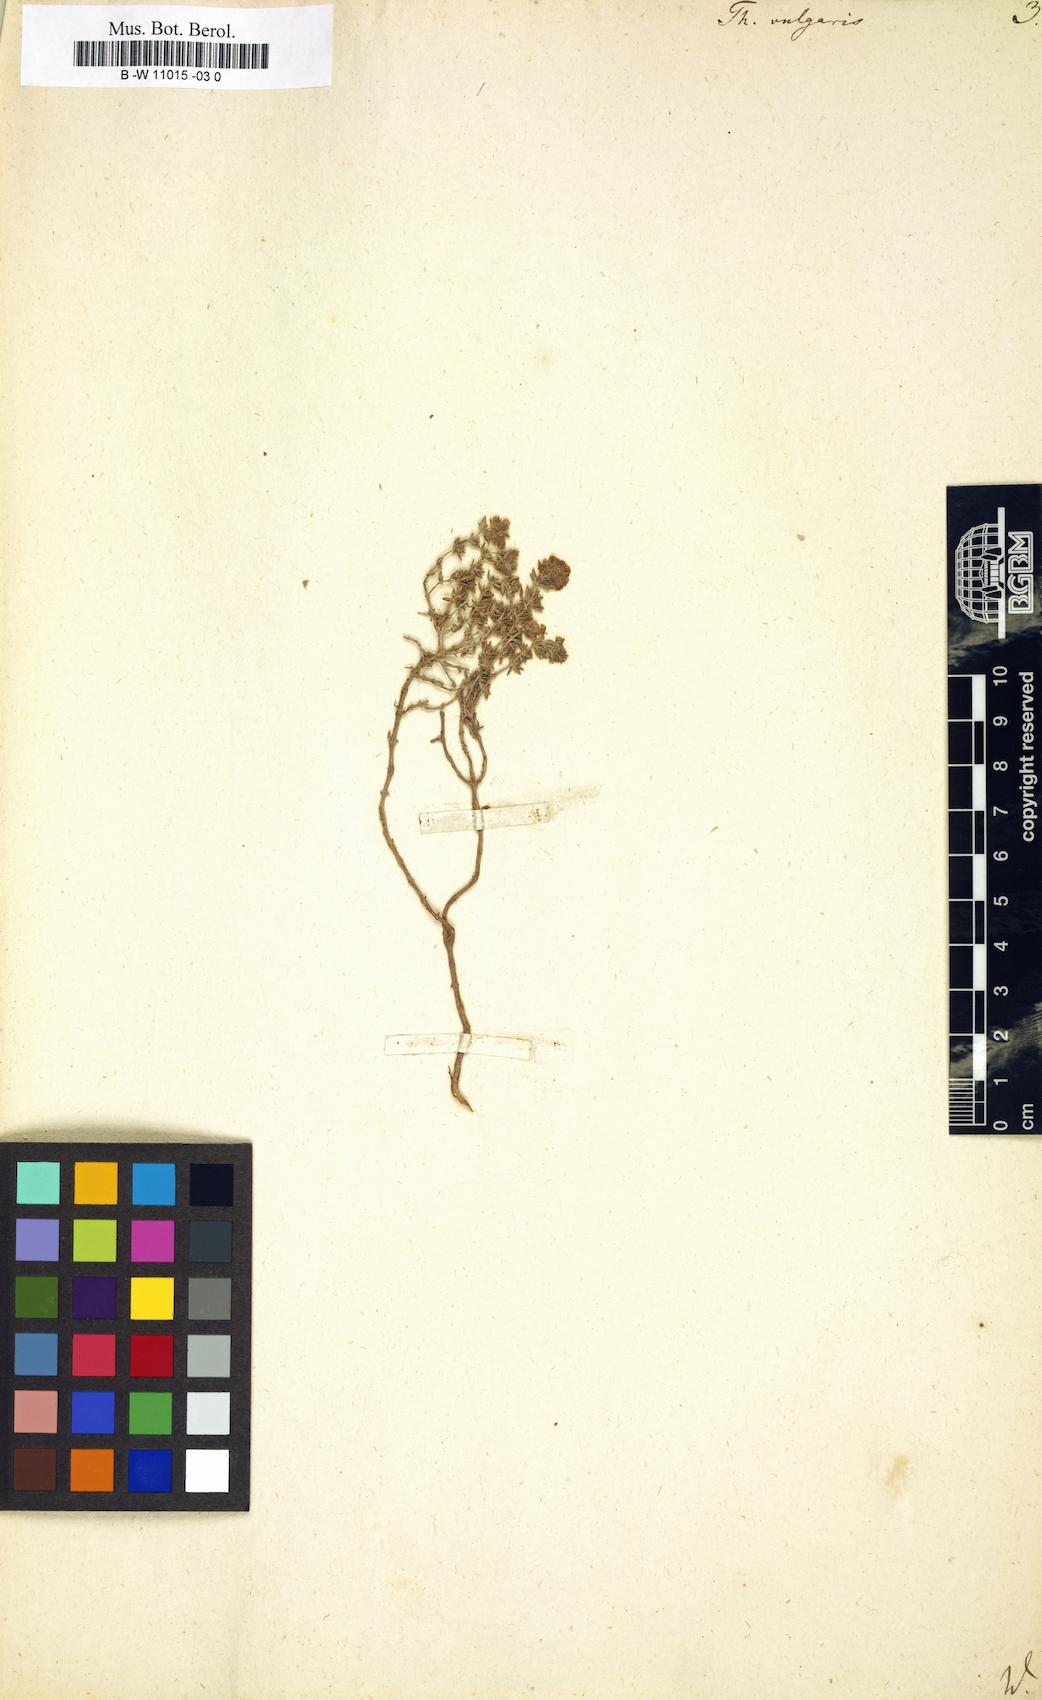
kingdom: Plantae
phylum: Tracheophyta
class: Magnoliopsida
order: Lamiales
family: Lamiaceae
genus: Thymus
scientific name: Thymus vulgaris
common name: Garden thyme
